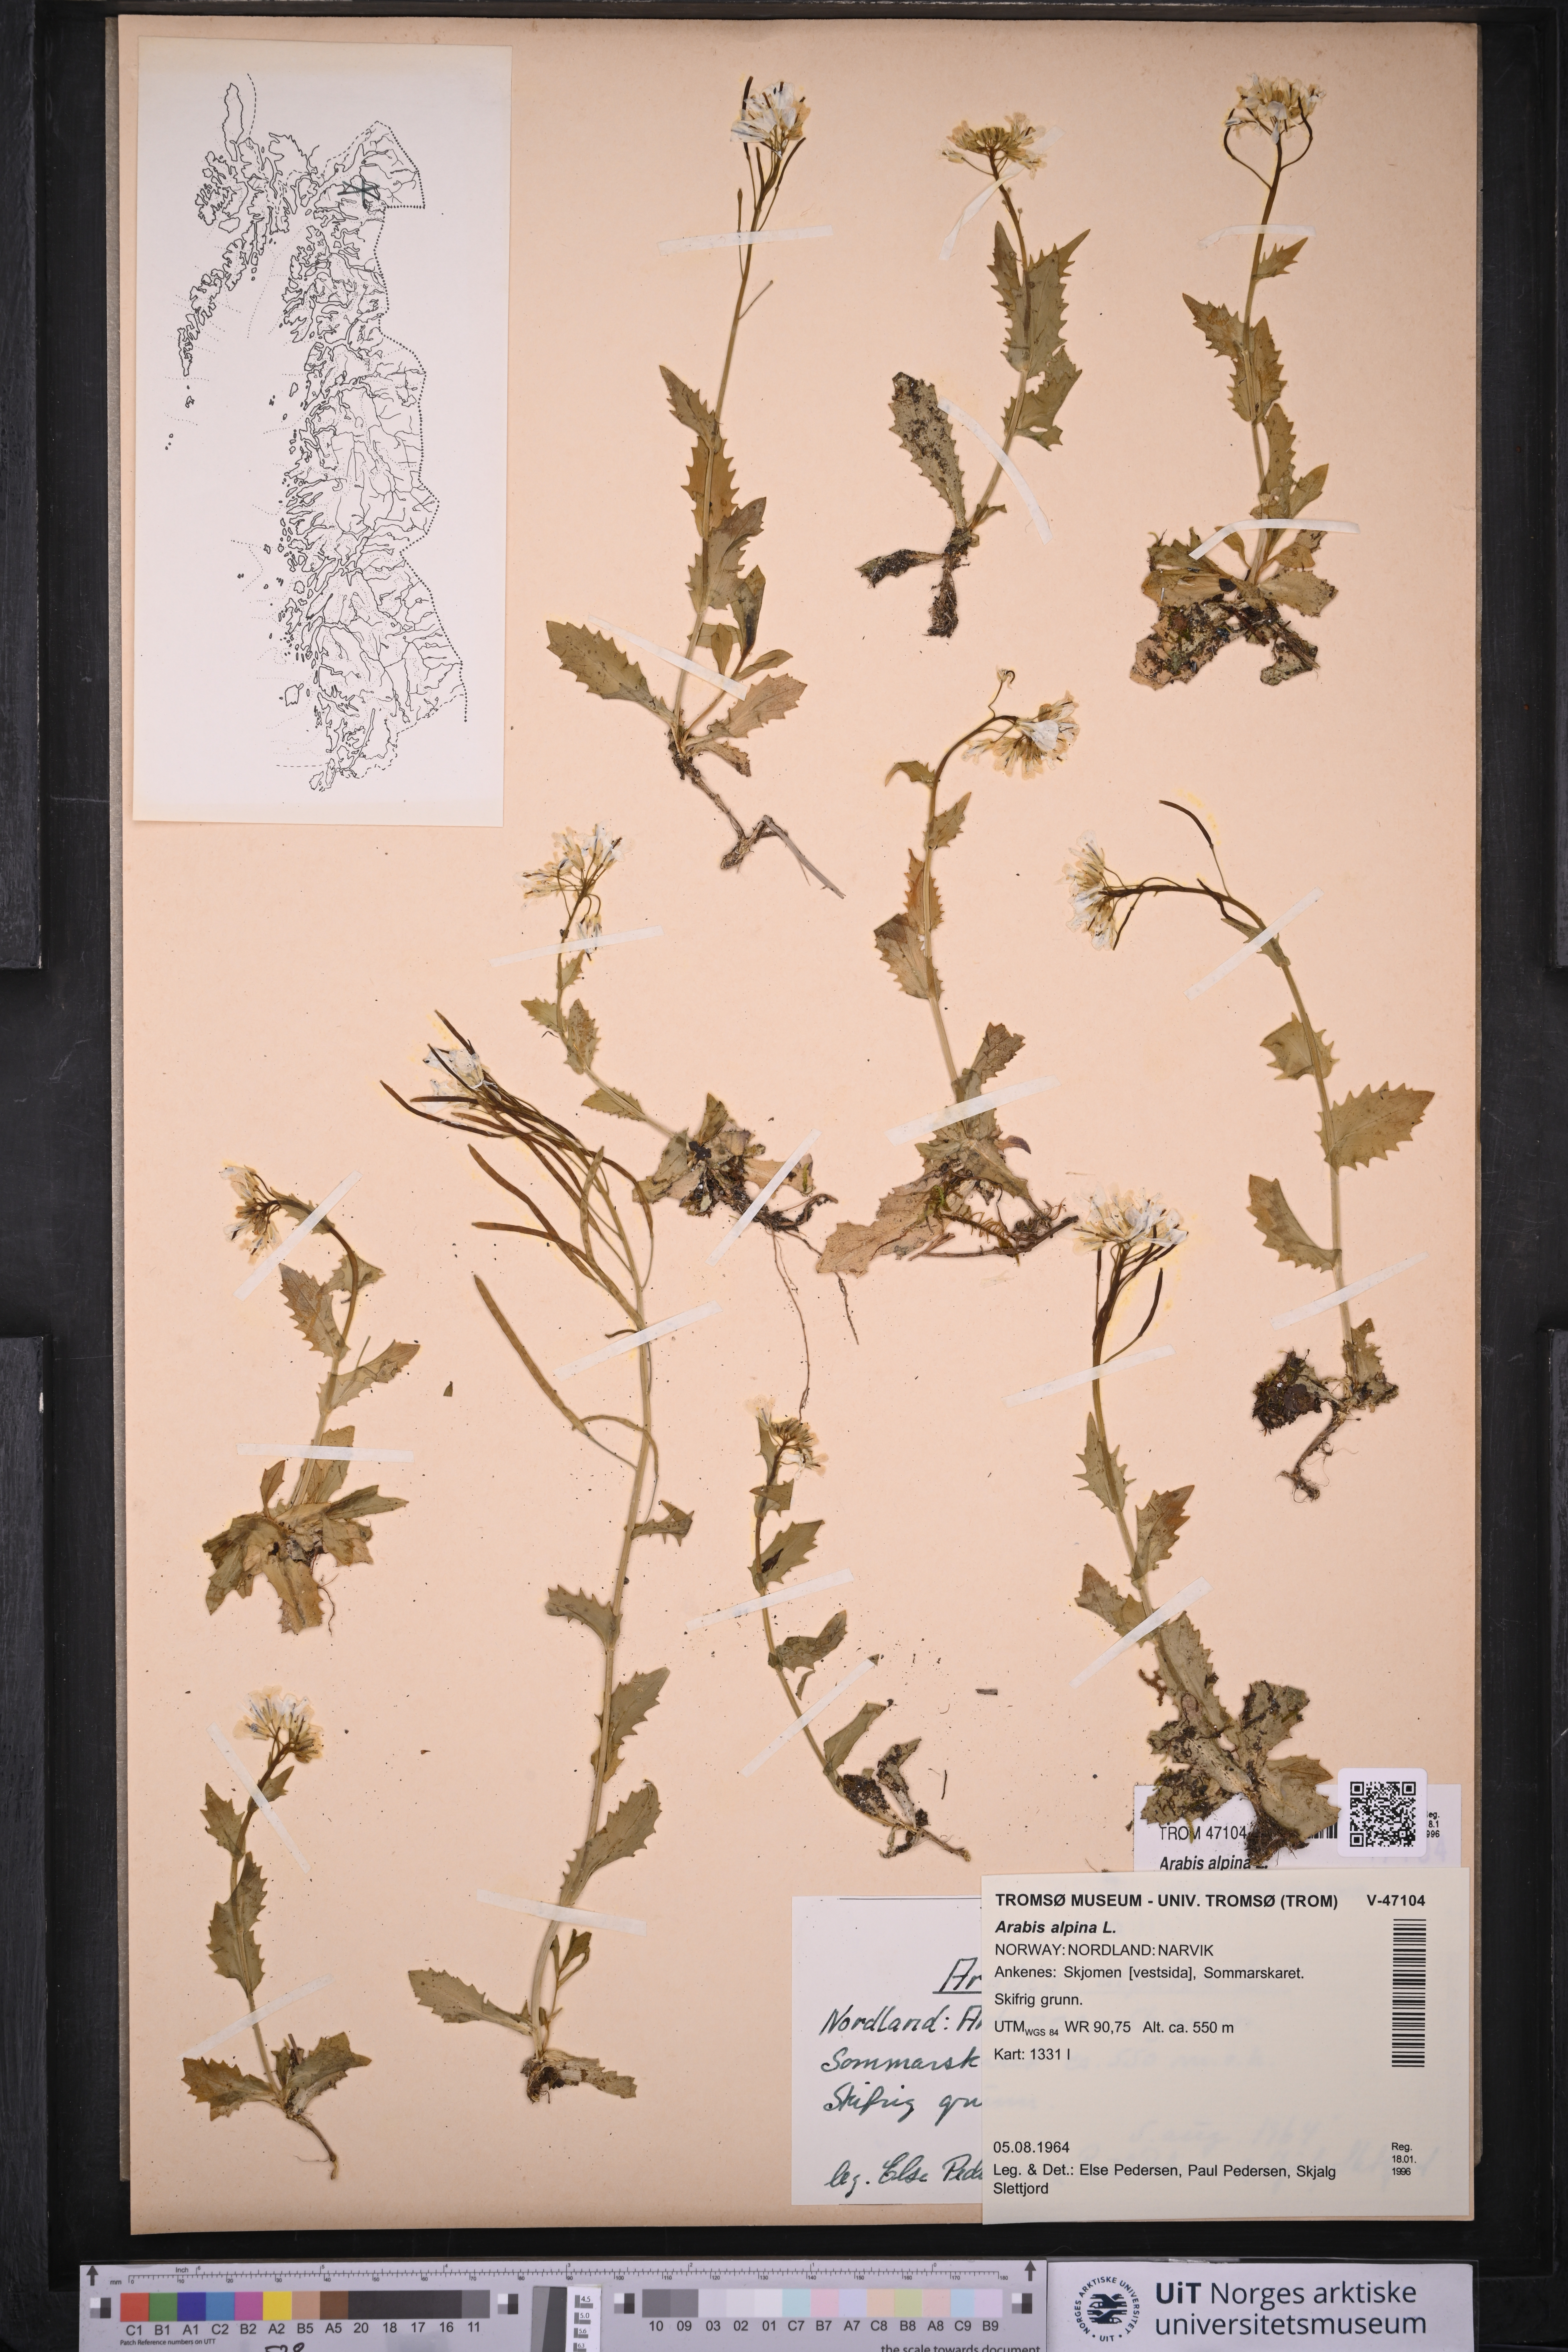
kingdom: Plantae
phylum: Tracheophyta
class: Magnoliopsida
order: Brassicales
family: Brassicaceae
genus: Arabis
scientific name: Arabis alpina
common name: Alpine rock-cress
